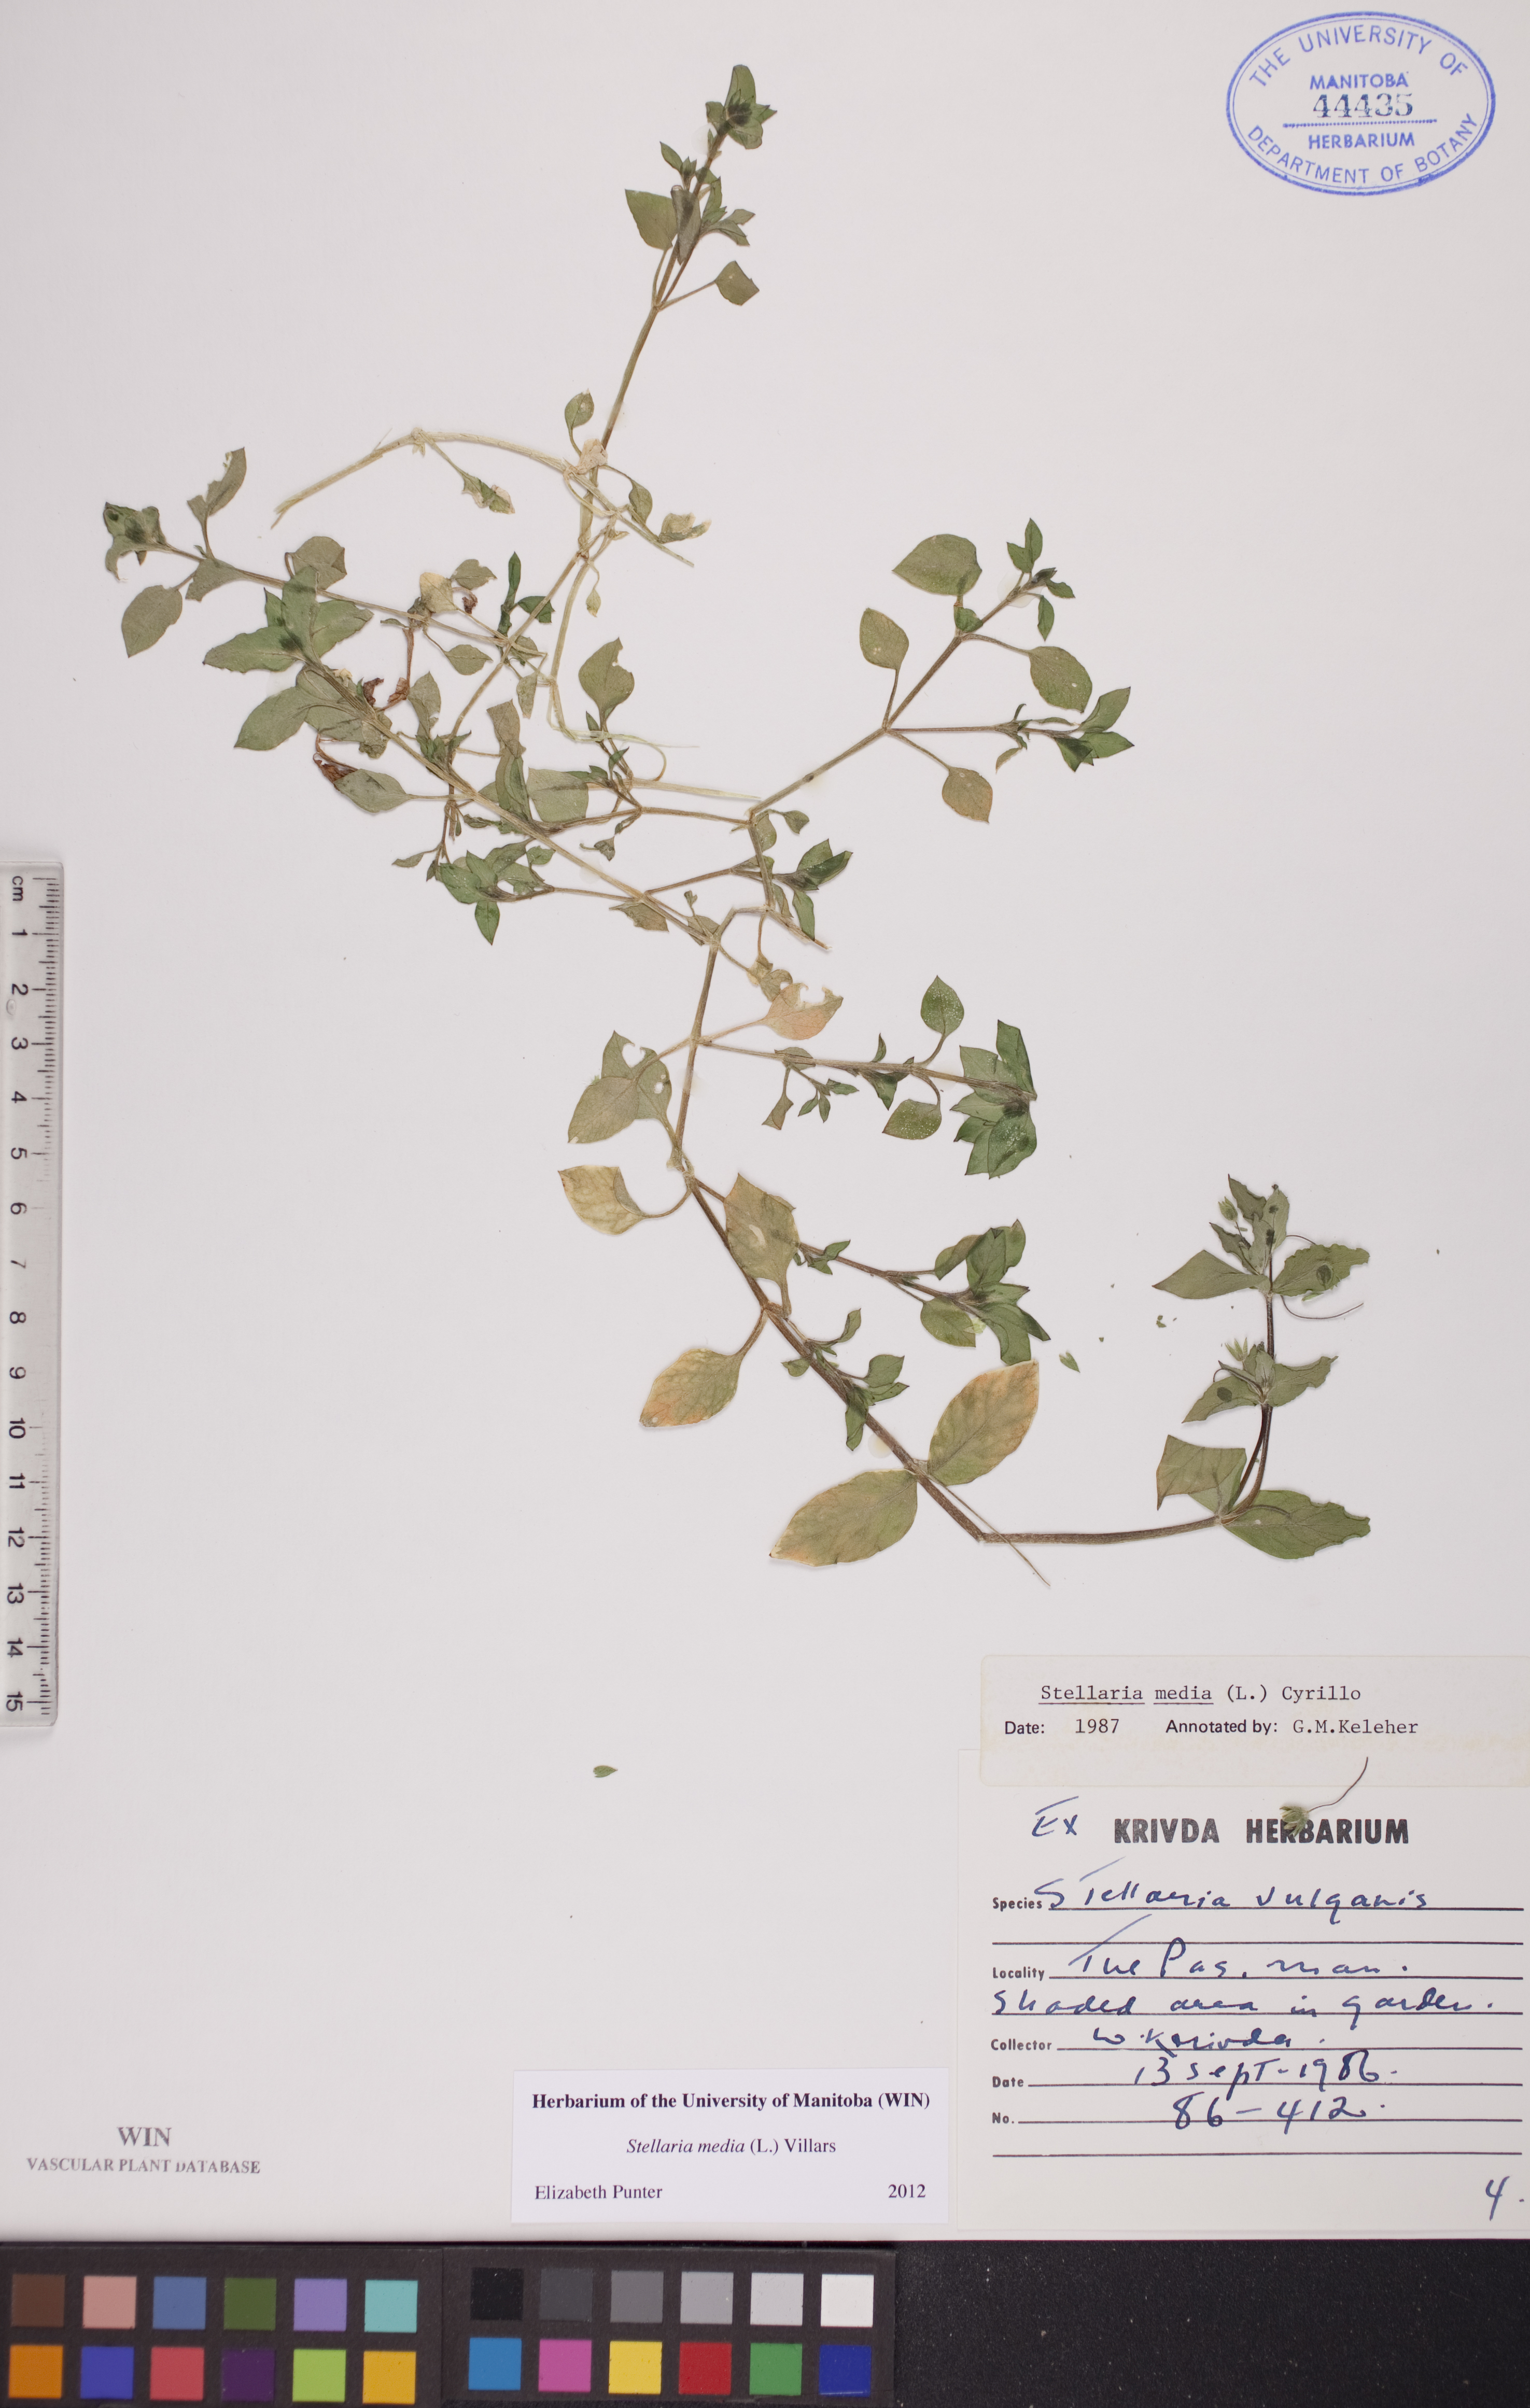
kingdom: Plantae
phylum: Tracheophyta
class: Magnoliopsida
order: Caryophyllales
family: Caryophyllaceae
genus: Stellaria
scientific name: Stellaria media
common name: Common chickweed
